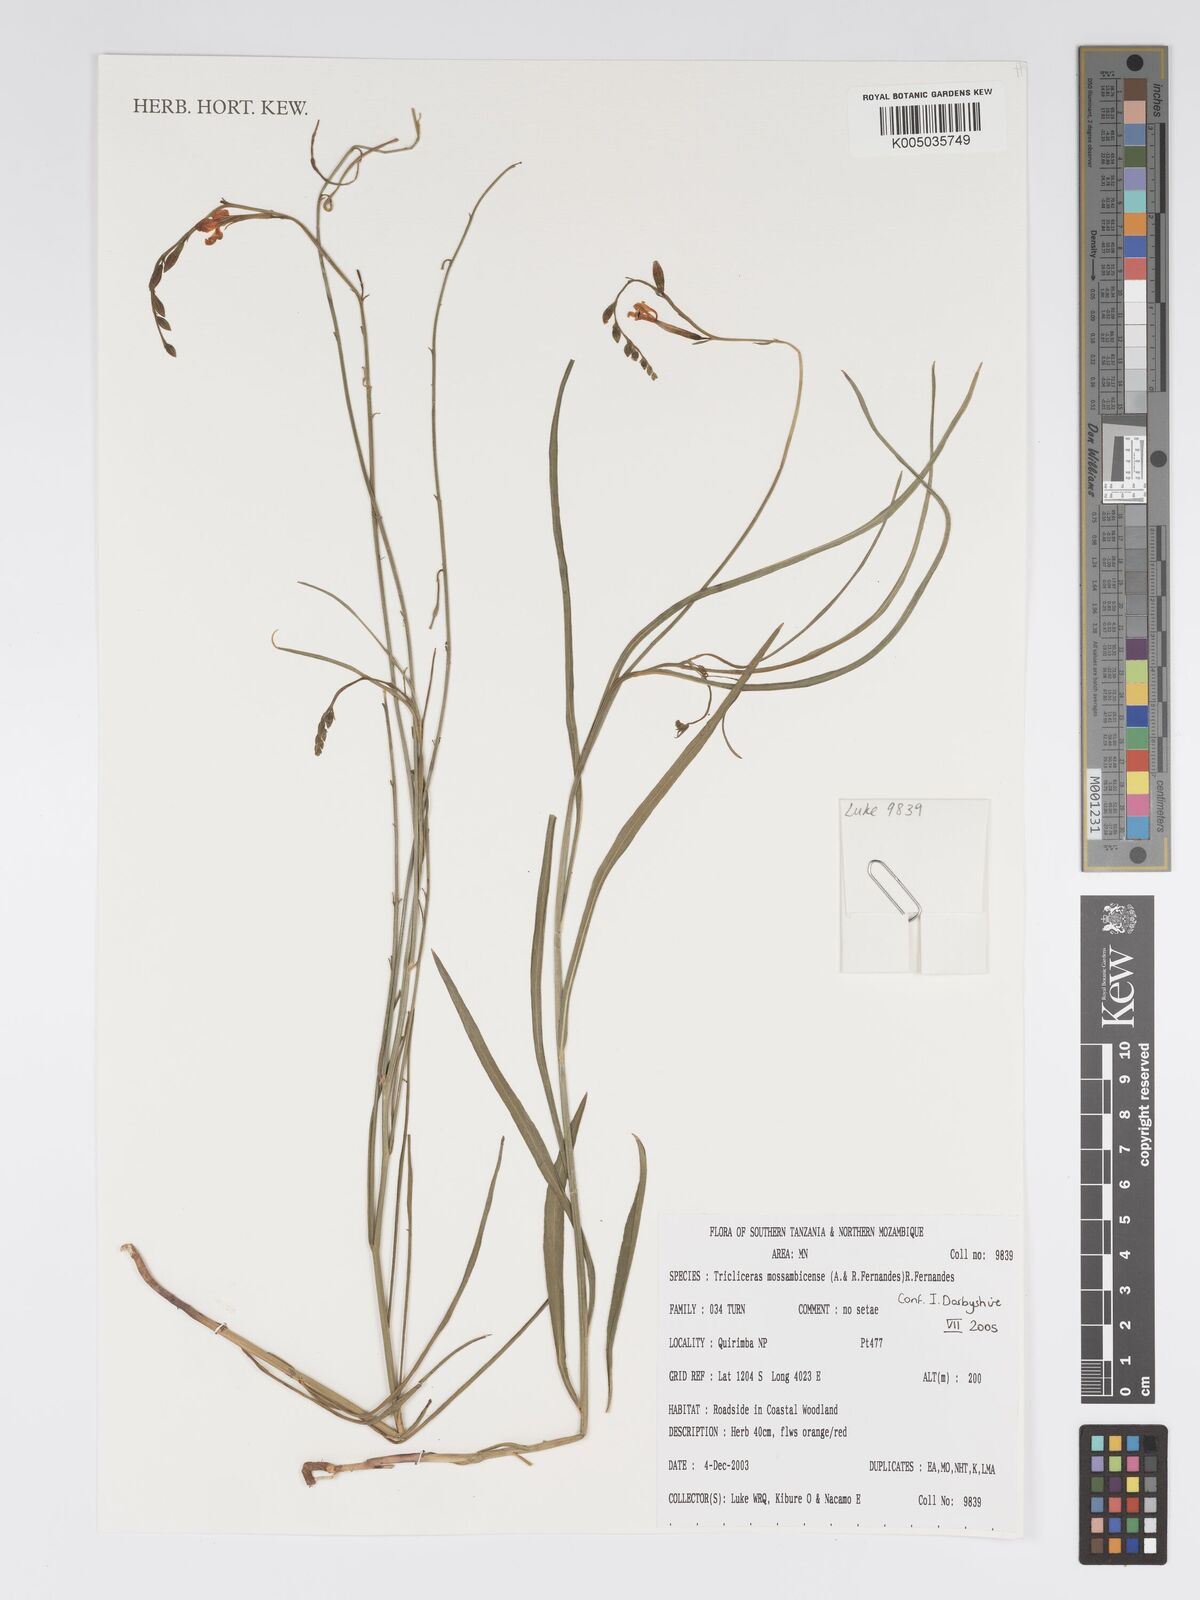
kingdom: Plantae
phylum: Tracheophyta
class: Magnoliopsida
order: Malpighiales
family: Turneraceae
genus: Tricliceras
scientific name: Tricliceras mossambicense
